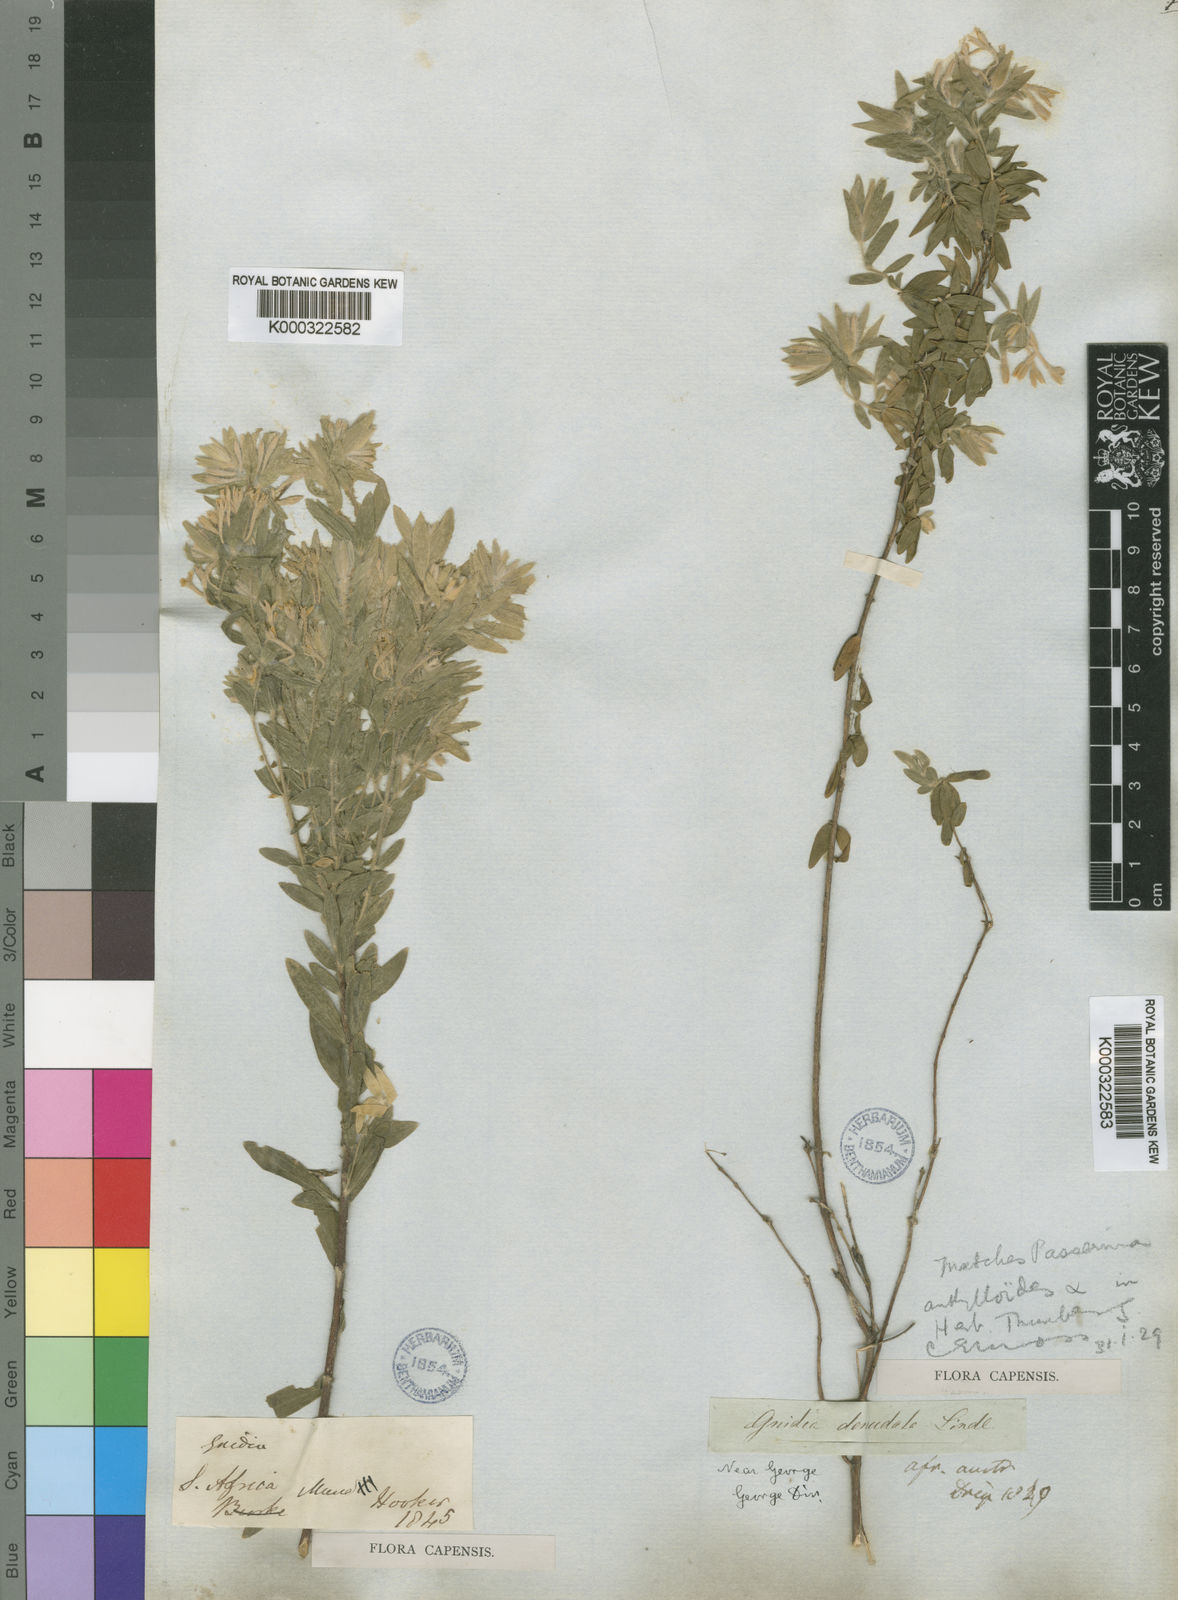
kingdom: Plantae
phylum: Tracheophyta
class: Magnoliopsida
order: Malvales
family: Thymelaeaceae
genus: Gnidia
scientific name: Gnidia virescens
